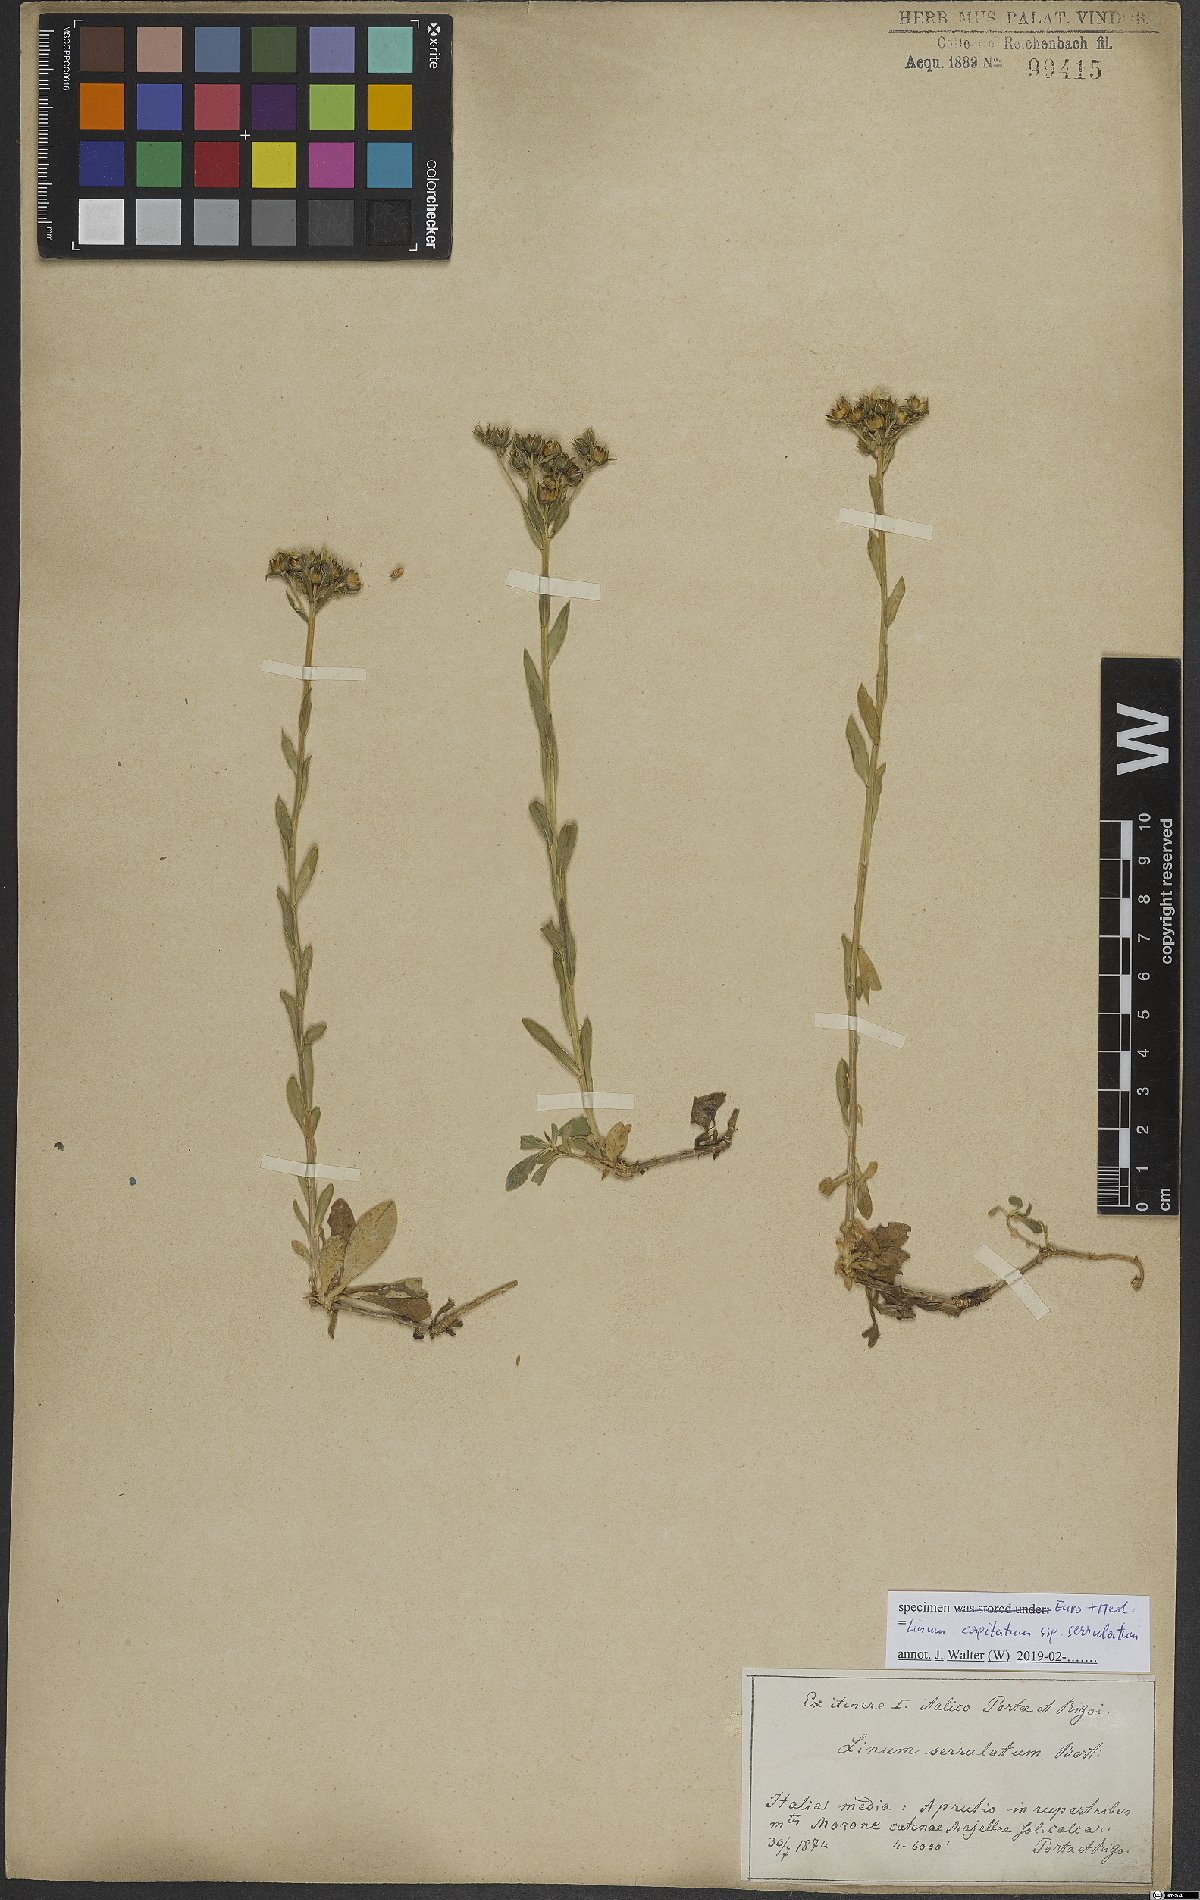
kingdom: Plantae
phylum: Tracheophyta
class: Magnoliopsida
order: Malpighiales
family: Linaceae
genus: Linum
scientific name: Linum capitatum
